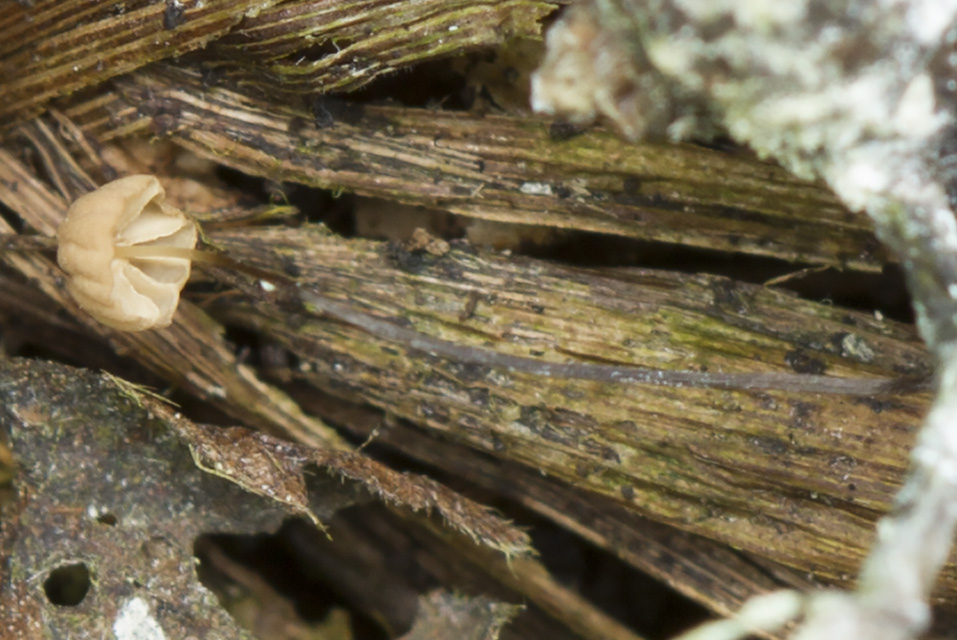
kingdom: Fungi
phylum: Basidiomycota
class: Agaricomycetes
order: Agaricales
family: Marasmiaceae
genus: Marasmius
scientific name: Marasmius curreyi
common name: teglrød bruskhat
